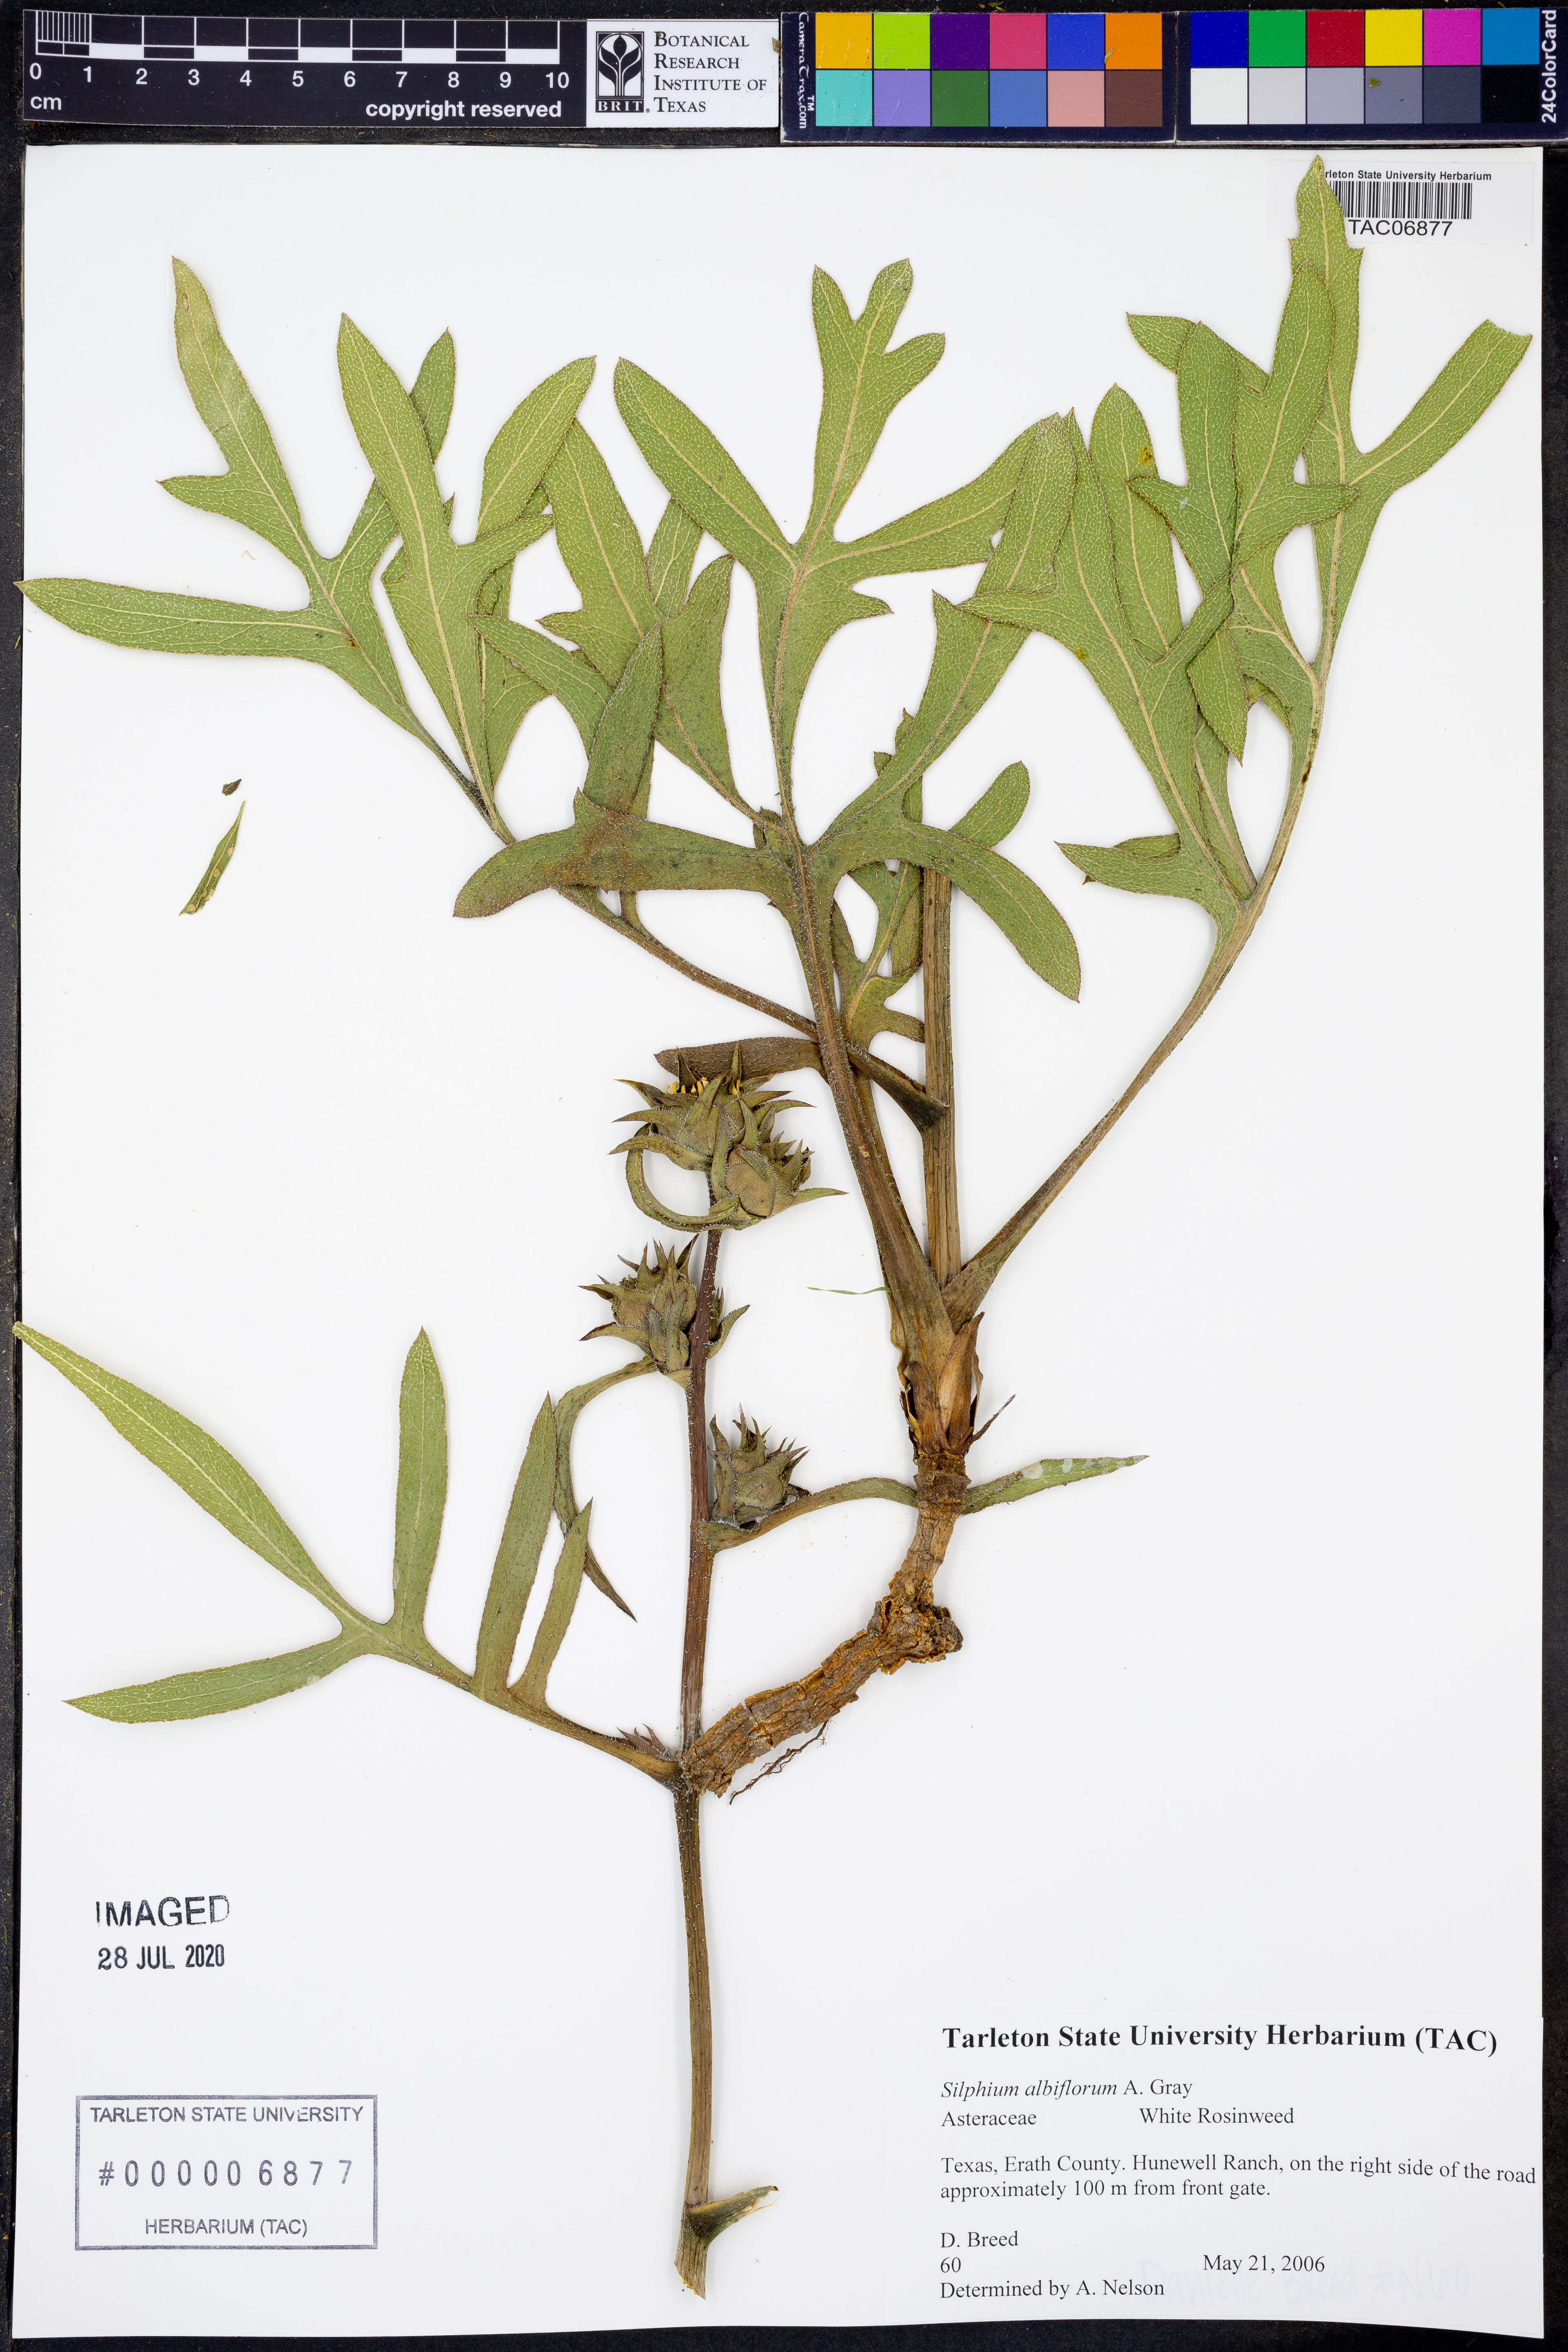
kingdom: Plantae
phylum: Tracheophyta
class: Magnoliopsida
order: Asterales
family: Asteraceae
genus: Silphium
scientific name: Silphium albiflorum
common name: White rosinweed
